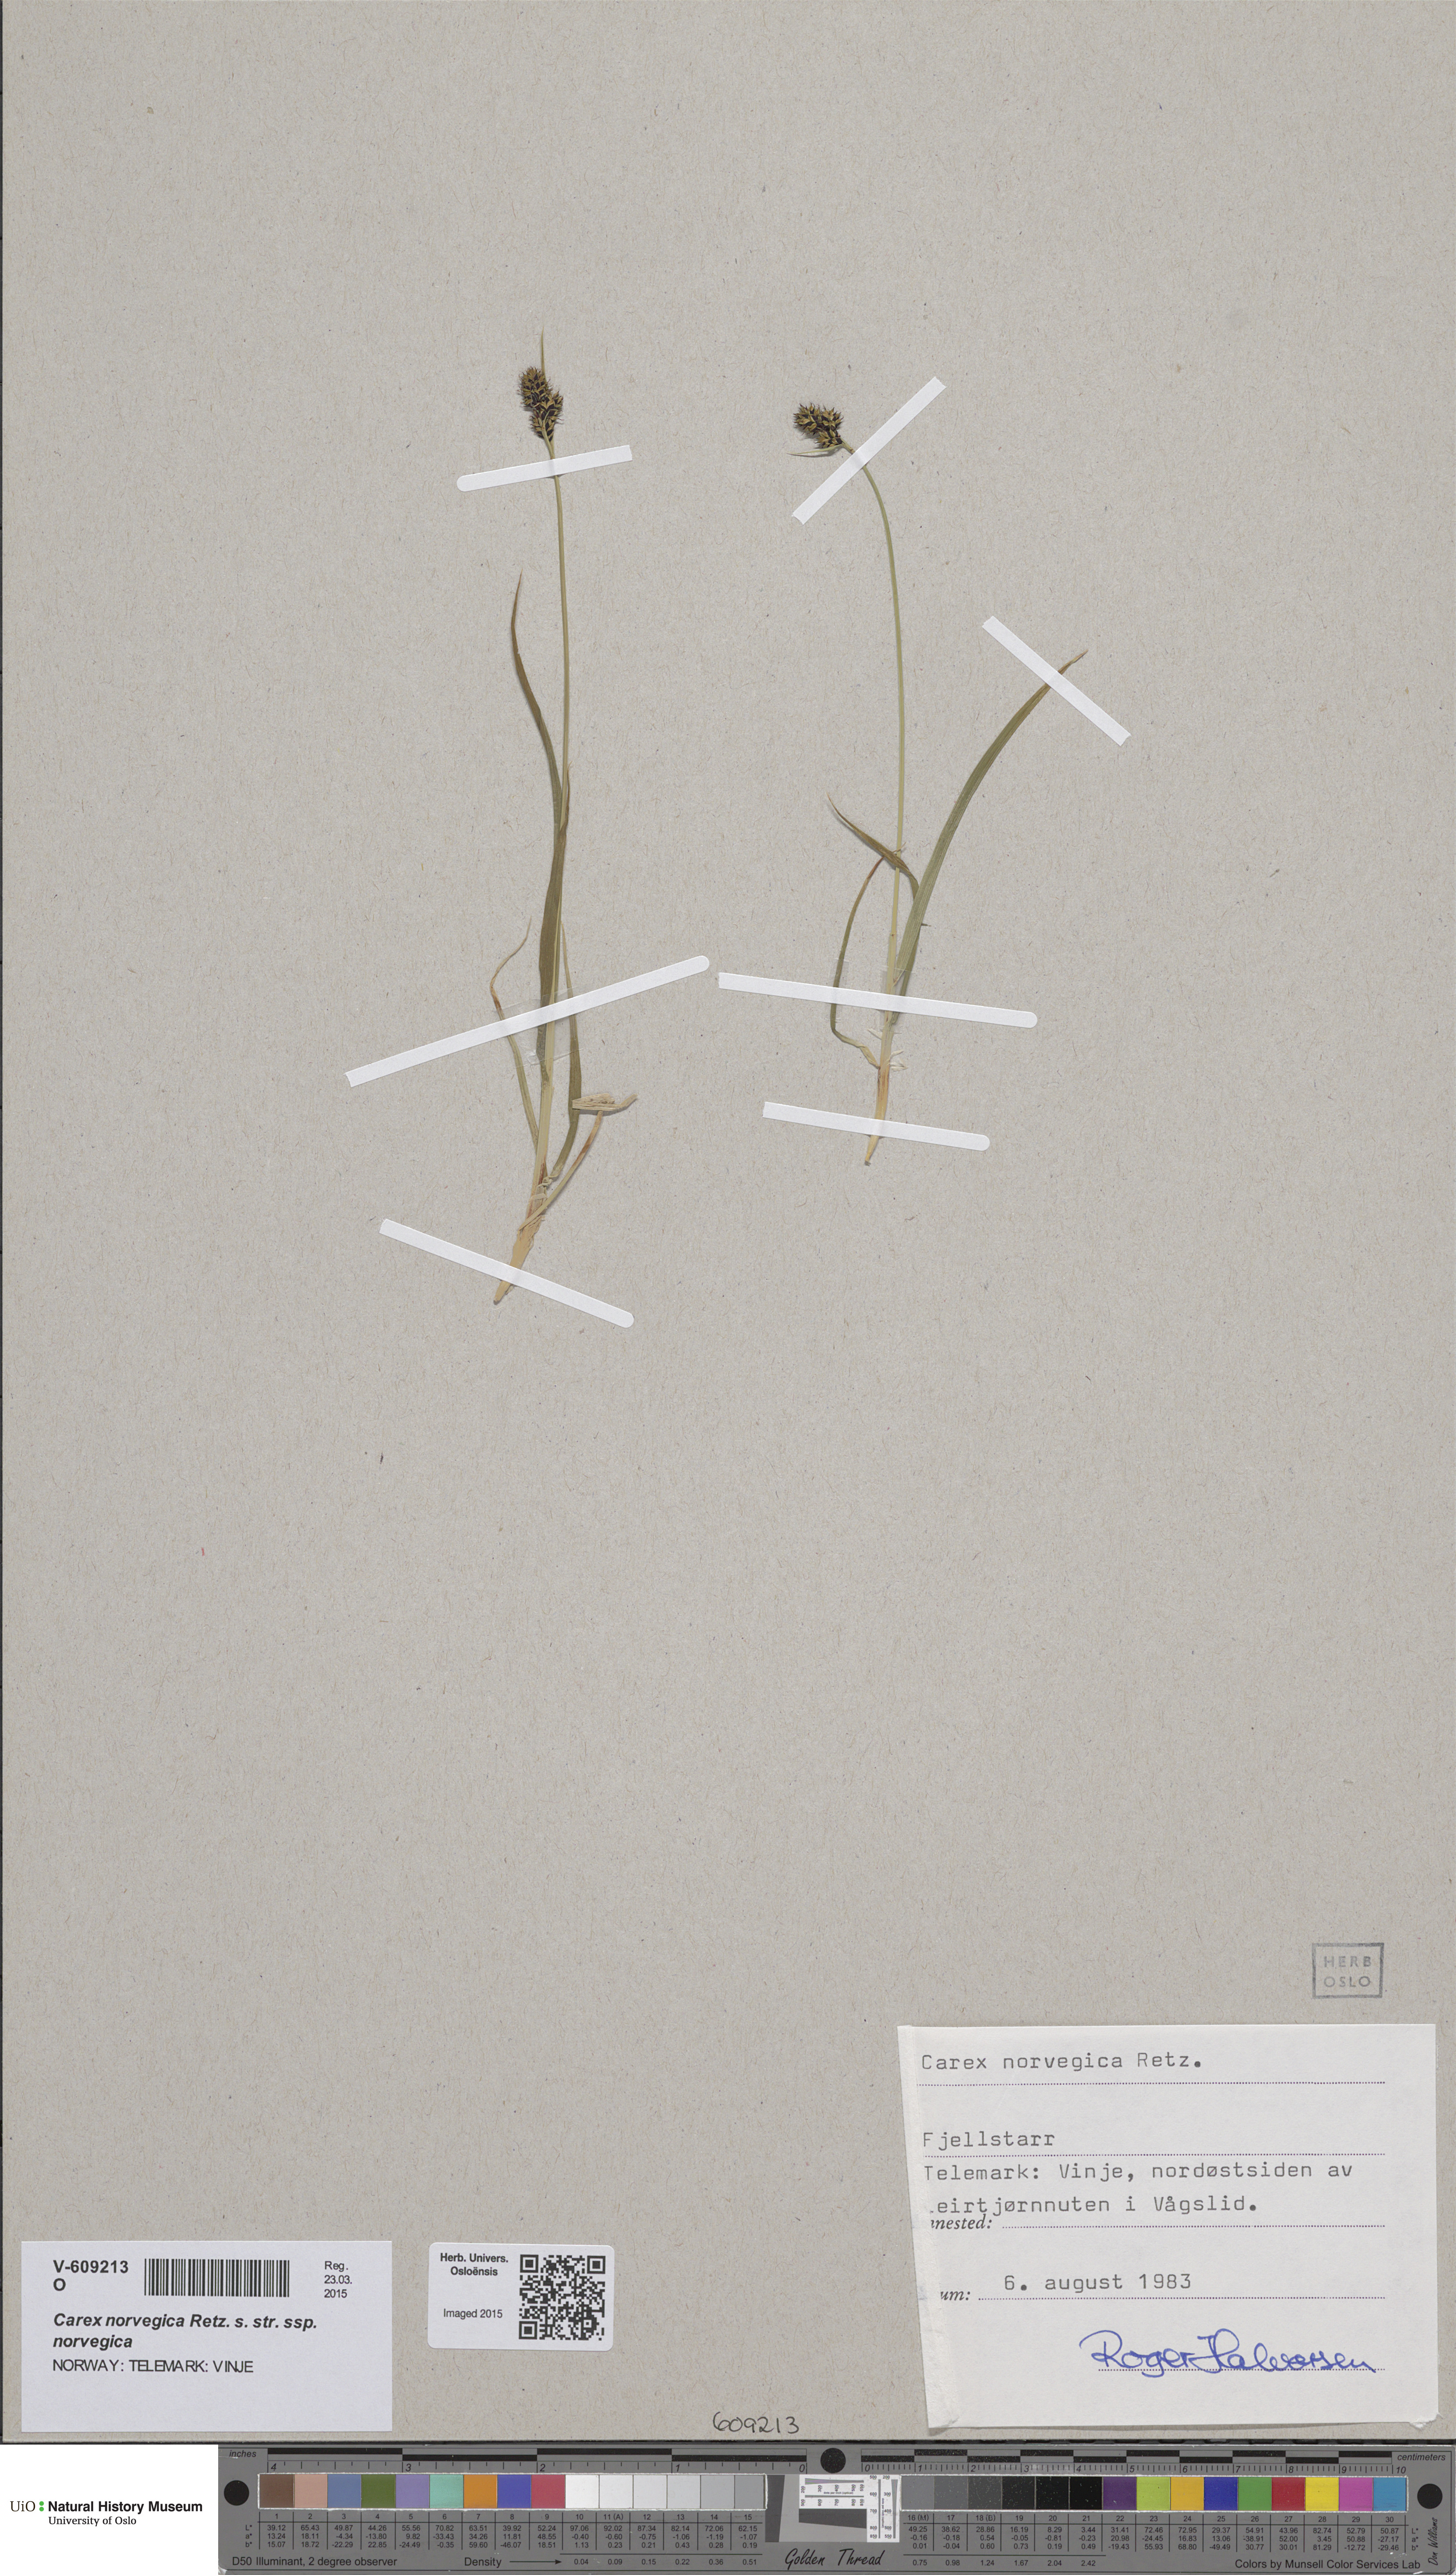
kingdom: Plantae
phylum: Tracheophyta
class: Liliopsida
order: Poales
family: Cyperaceae
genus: Carex
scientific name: Carex norvegica
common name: Close-headed alpine-sedge
